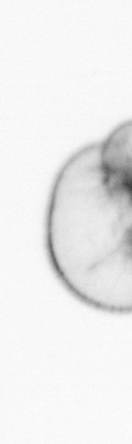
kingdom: Chromista
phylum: Myzozoa
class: Dinophyceae
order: Noctilucales
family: Noctilucaceae
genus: Noctiluca
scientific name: Noctiluca scintillans
